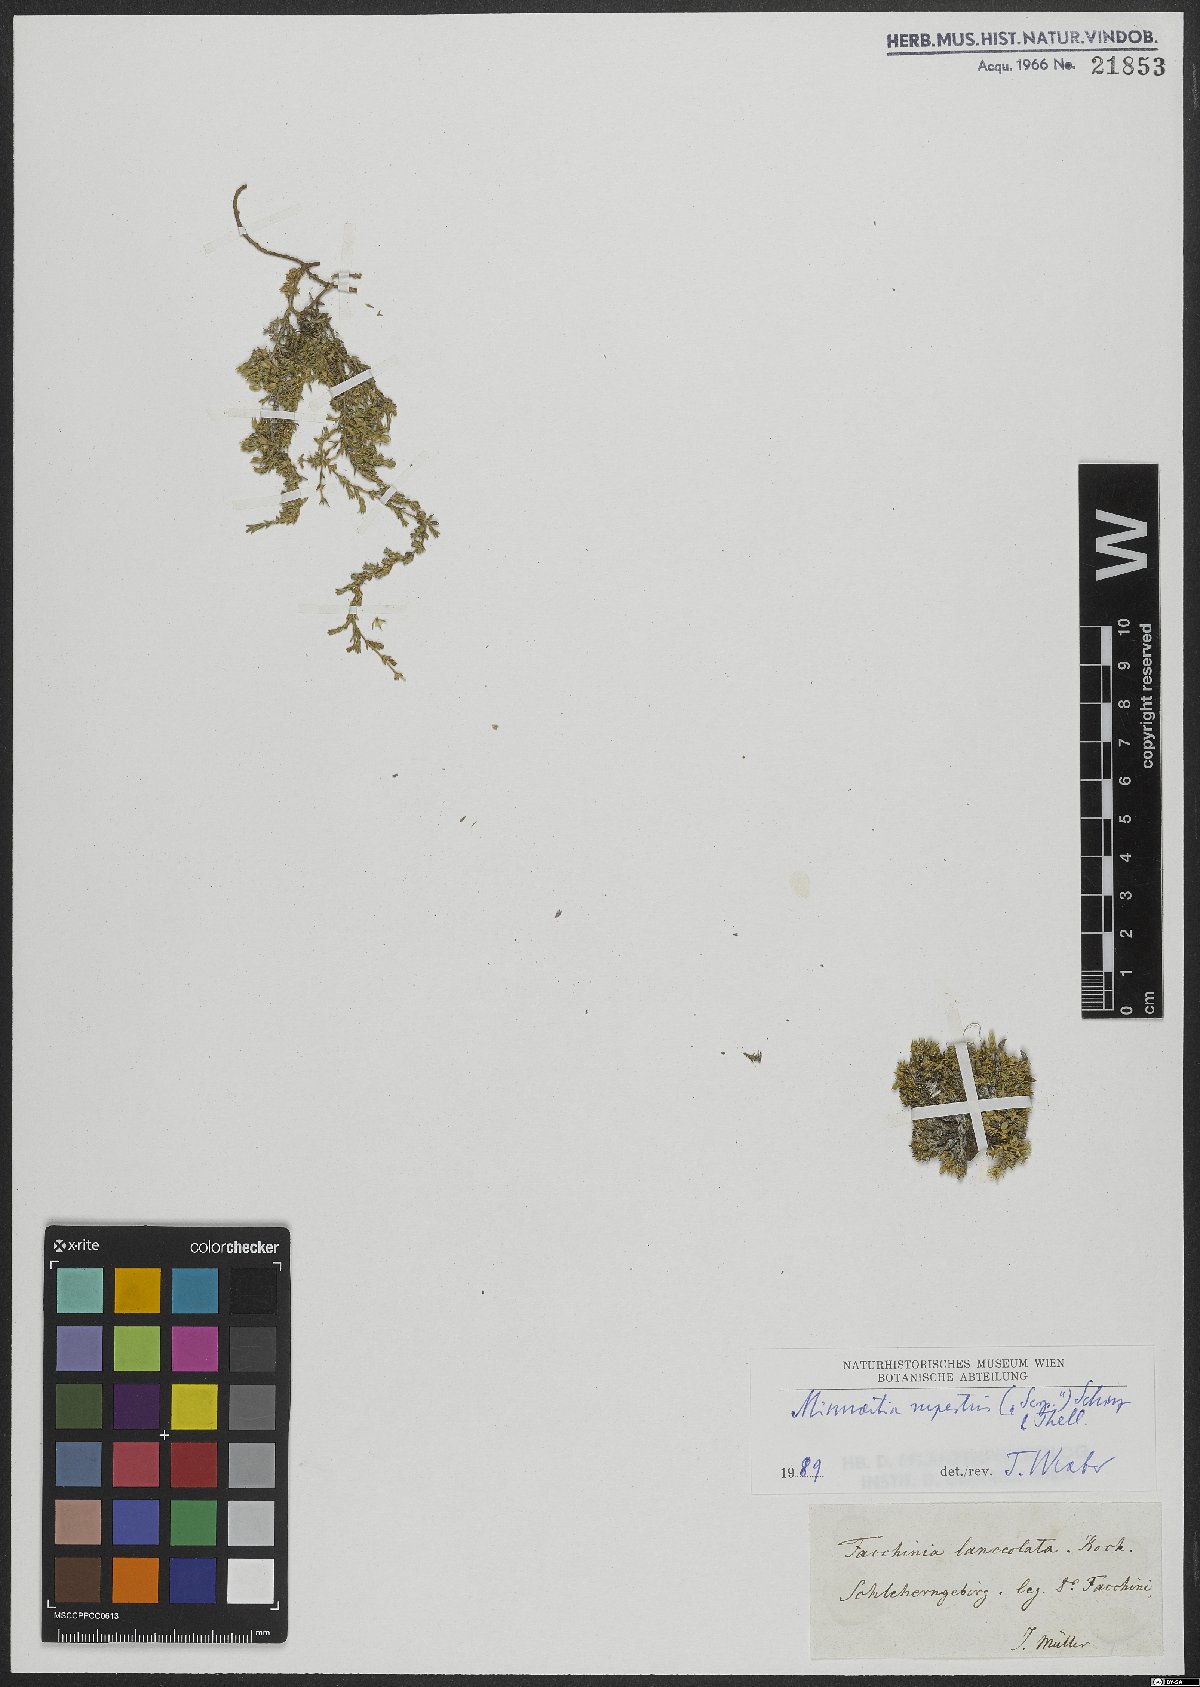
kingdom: Plantae
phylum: Tracheophyta
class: Magnoliopsida
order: Caryophyllales
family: Caryophyllaceae
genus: Facchinia
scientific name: Facchinia rupestris
